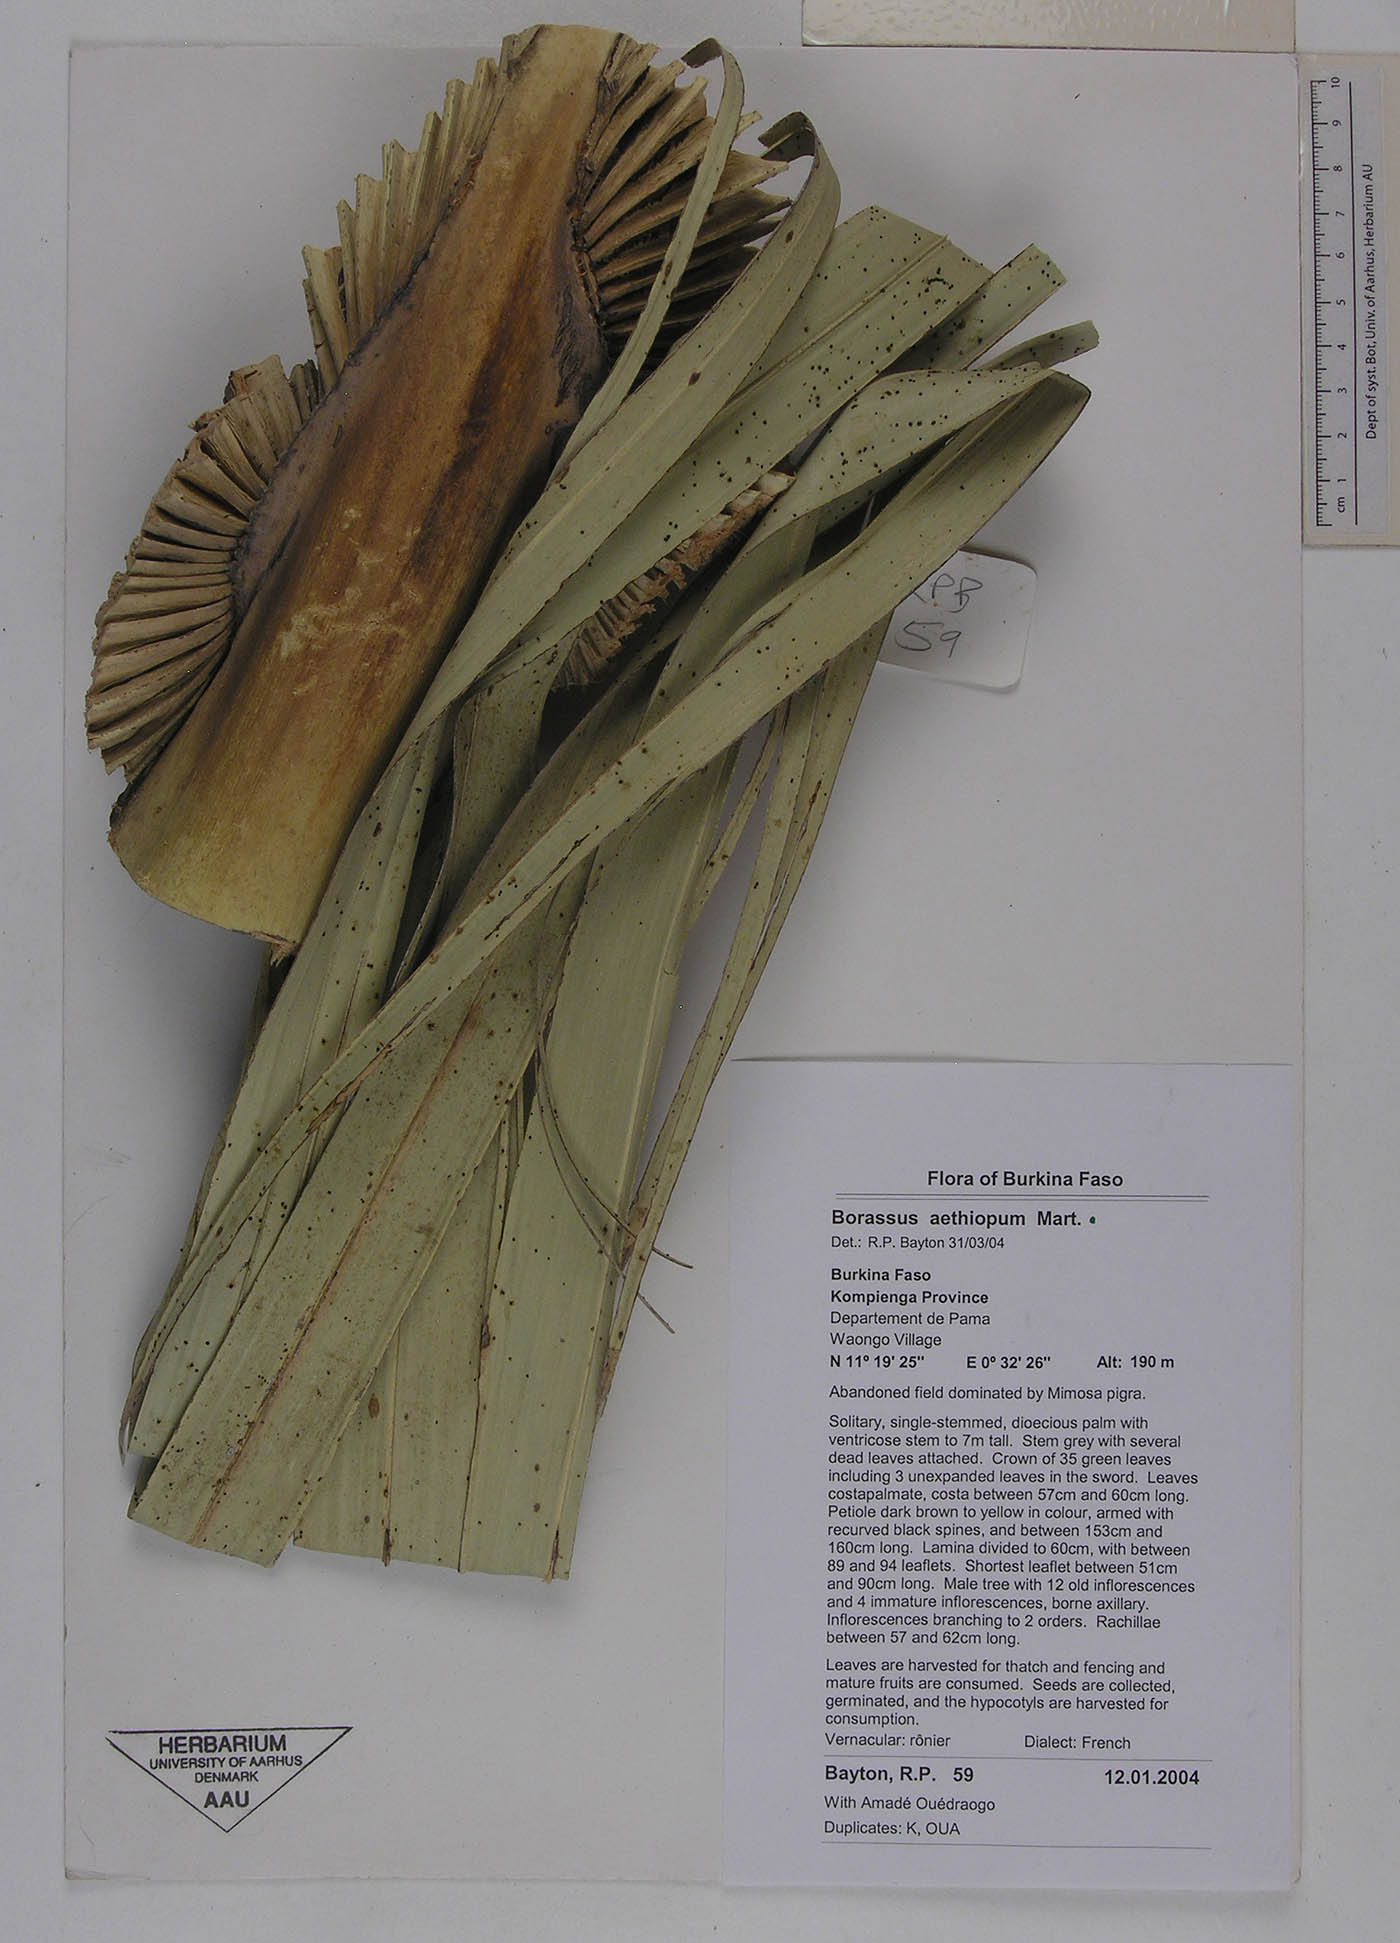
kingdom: Plantae
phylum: Tracheophyta
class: Liliopsida
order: Arecales
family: Arecaceae
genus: Borassus
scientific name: Borassus aethiopum
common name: Elephant palm
